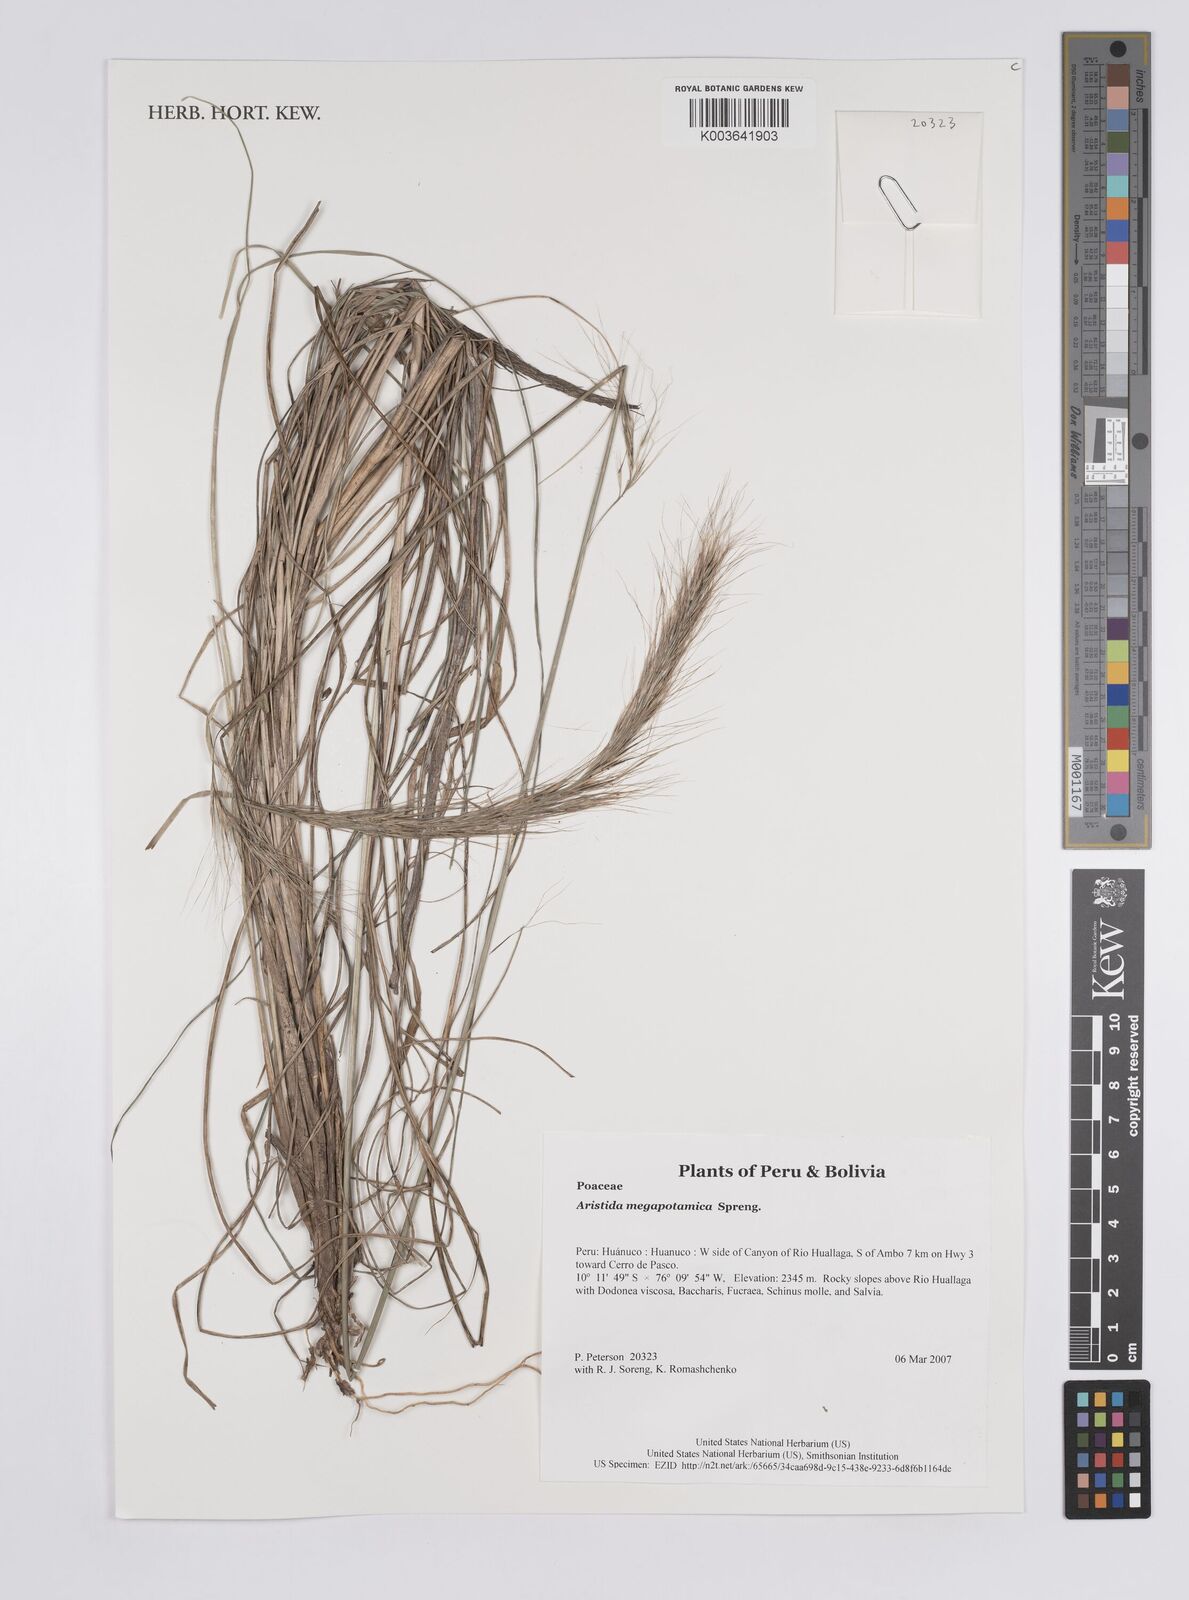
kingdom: Plantae
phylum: Tracheophyta
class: Liliopsida
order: Poales
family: Poaceae
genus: Aristida
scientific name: Aristida megapotamica
